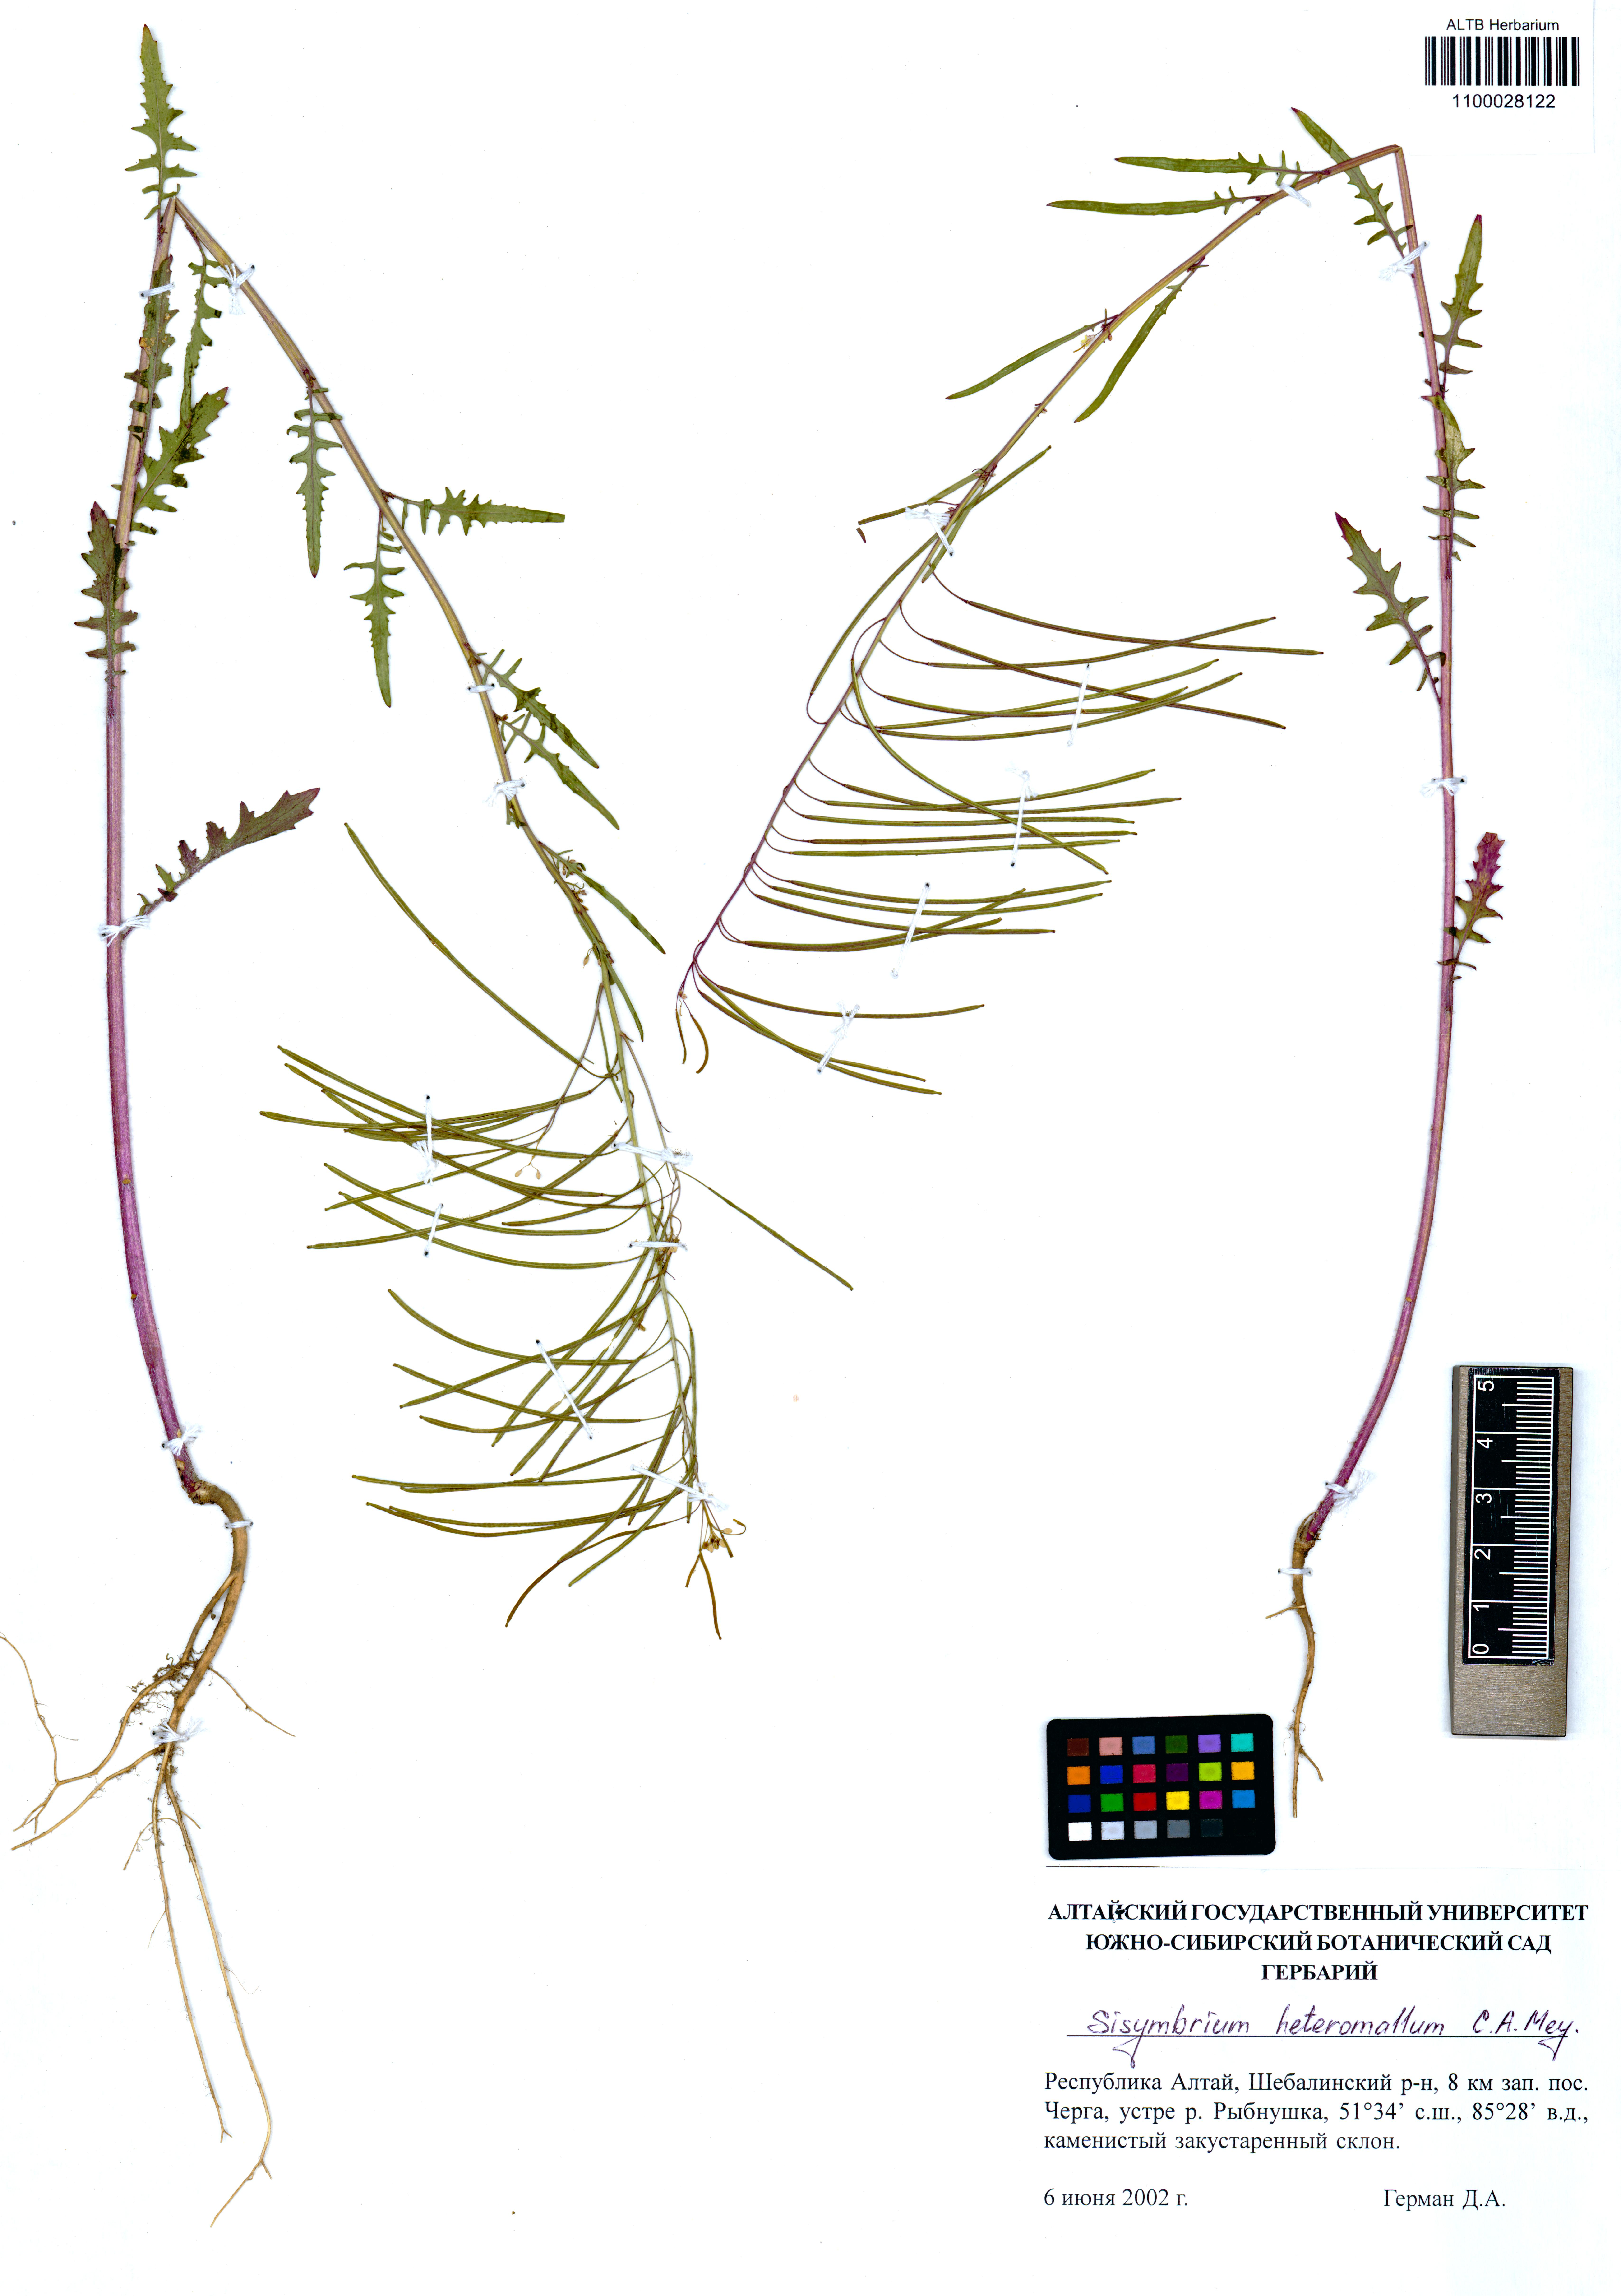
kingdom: Plantae
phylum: Tracheophyta
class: Magnoliopsida
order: Brassicales
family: Brassicaceae
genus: Sisymbrium
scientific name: Sisymbrium heteromallum
